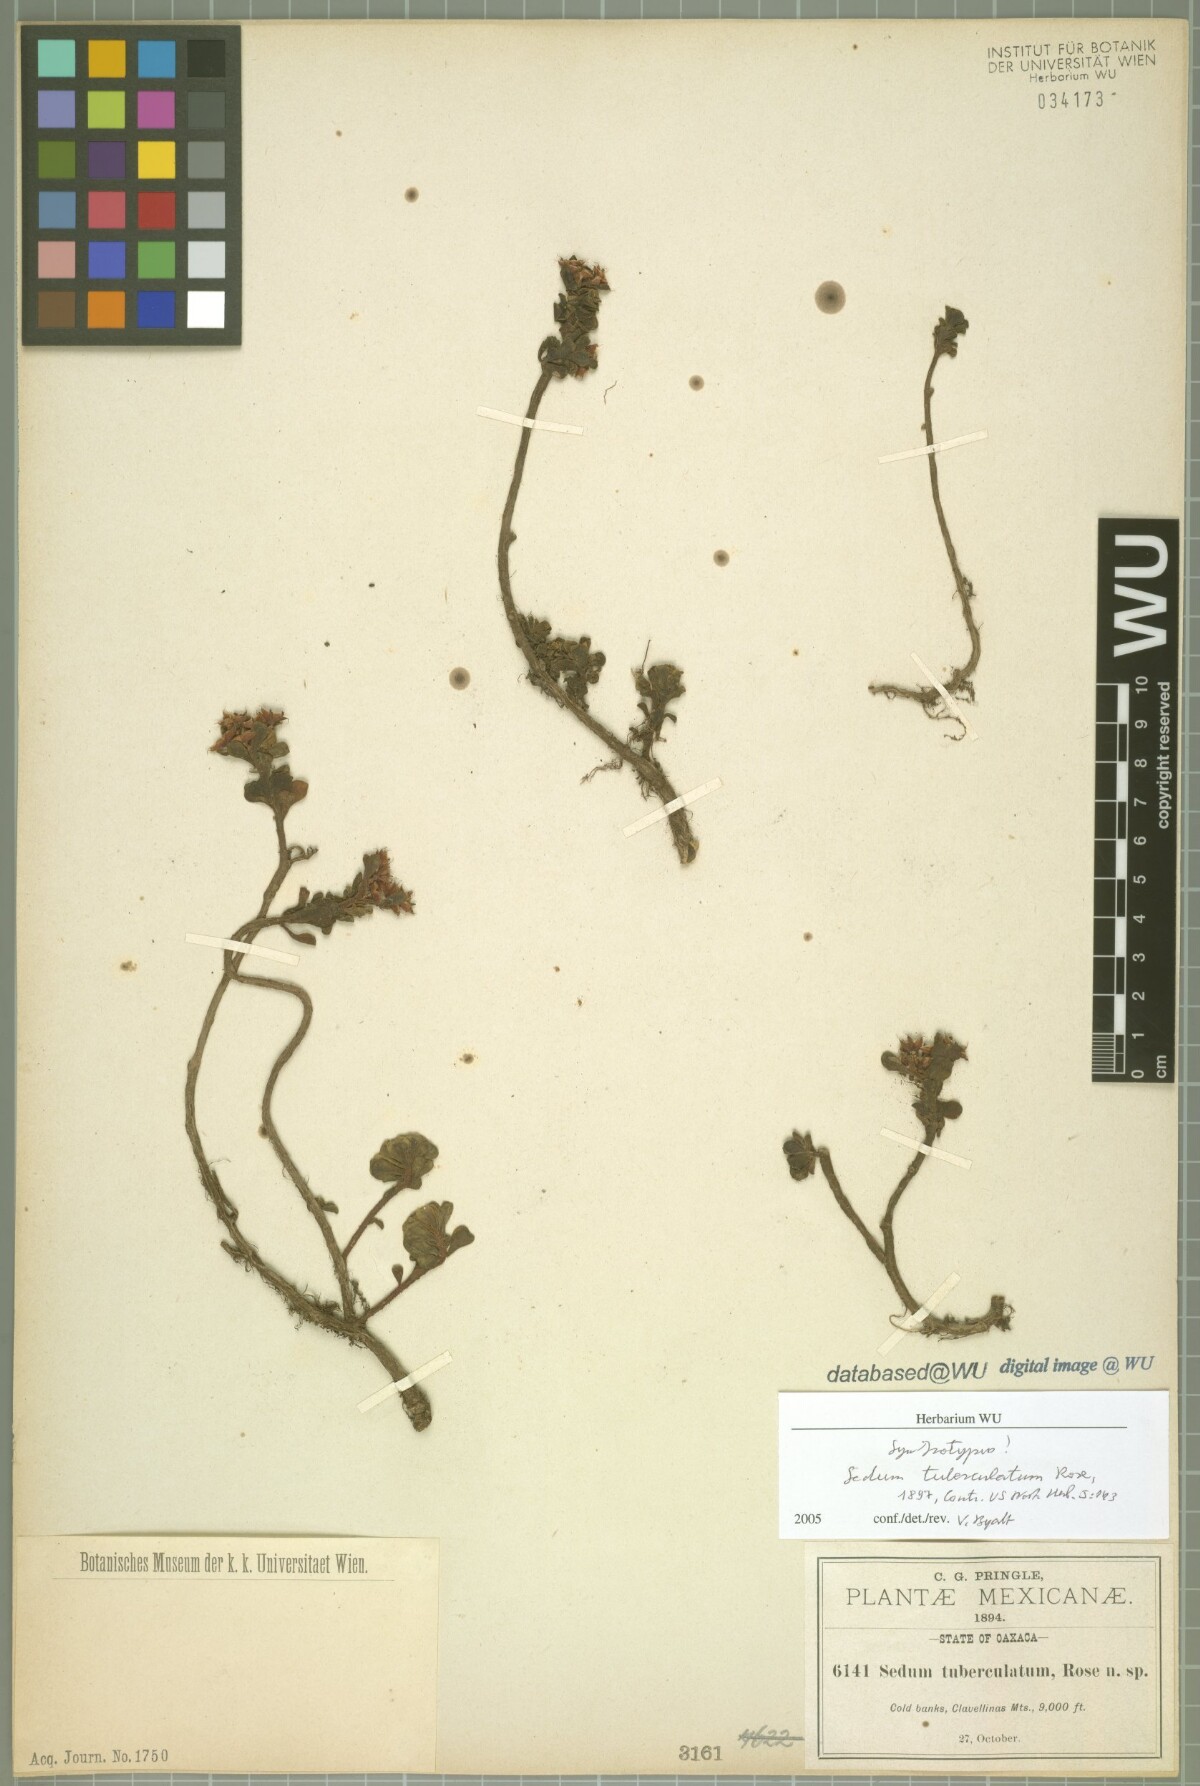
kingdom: Plantae
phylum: Tracheophyta
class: Magnoliopsida
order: Saxifragales
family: Crassulaceae
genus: Sedum
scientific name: Sedum tuberculatum
